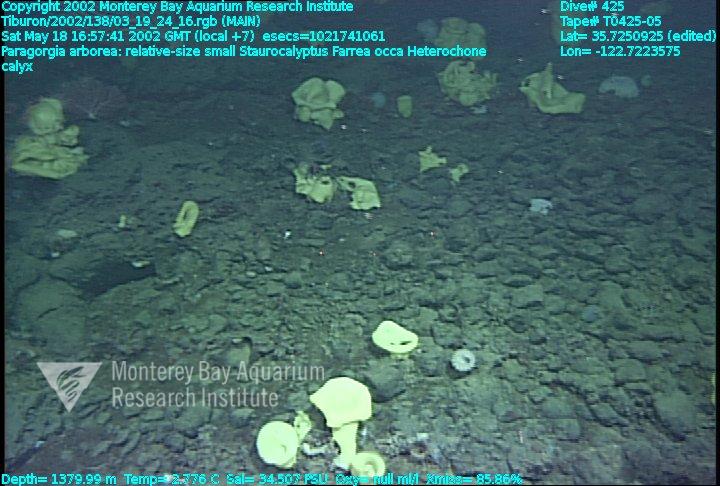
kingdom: Animalia
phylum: Porifera
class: Hexactinellida
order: Sceptrulophora
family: Aphrocallistidae
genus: Heterochone
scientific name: Heterochone calyx
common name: Fingered goblet glass sponge
